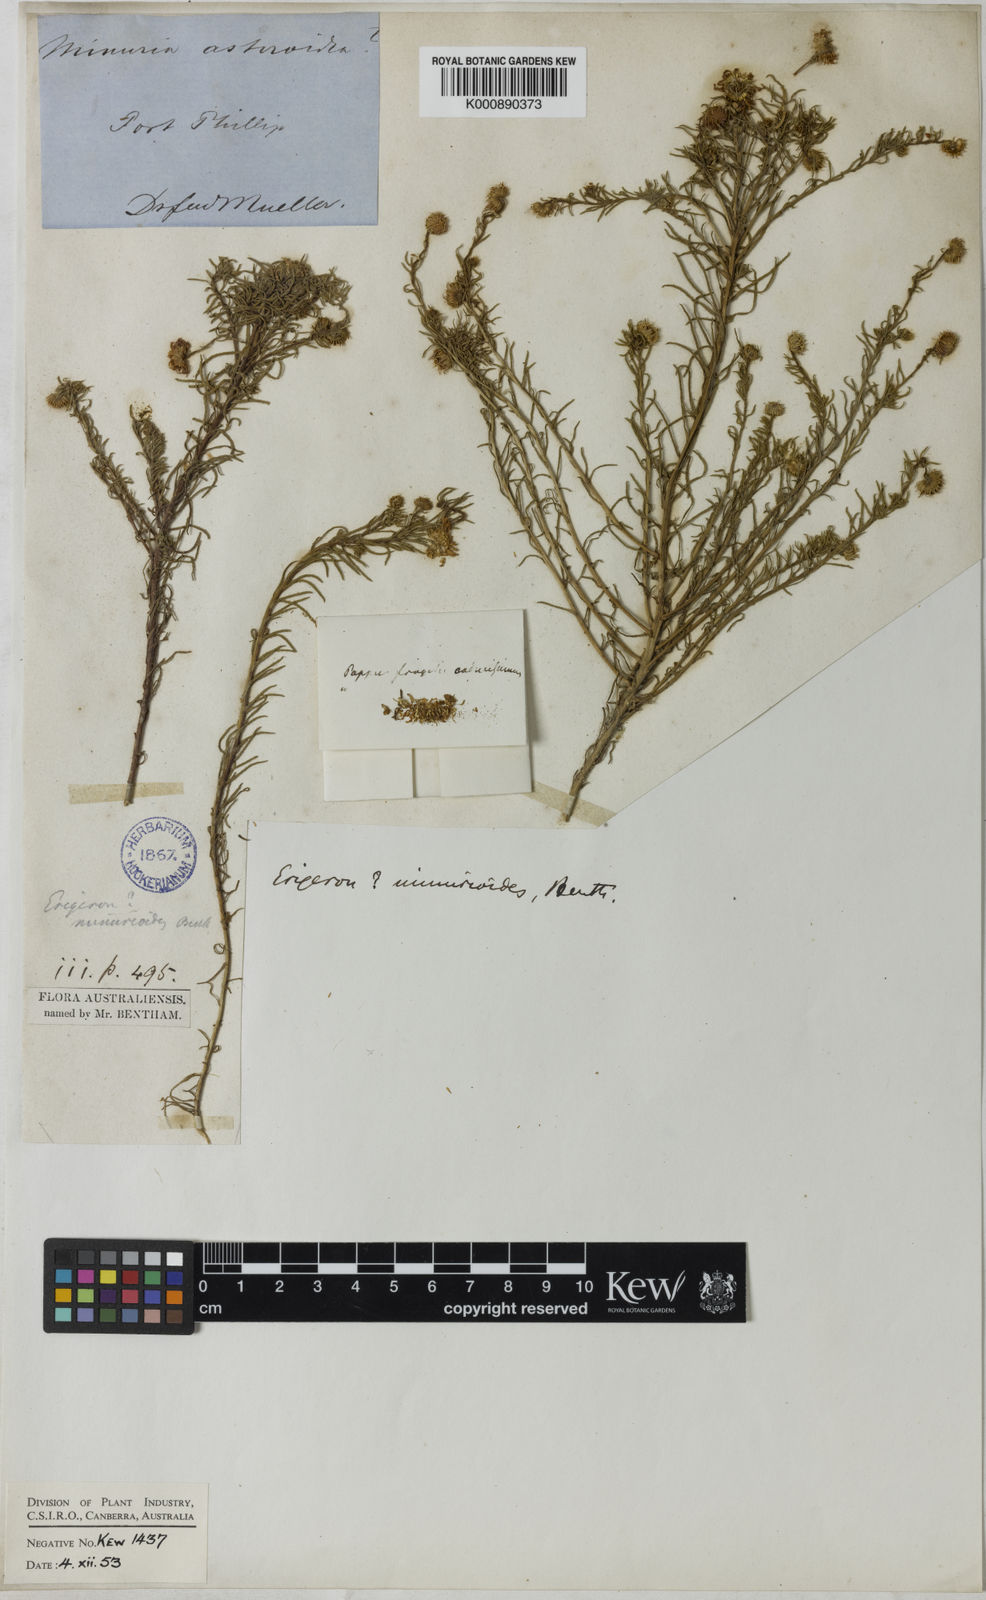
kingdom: Plantae
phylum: Tracheophyta
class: Magnoliopsida
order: Asterales
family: Asteraceae
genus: Felicia
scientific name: Felicia tenella
